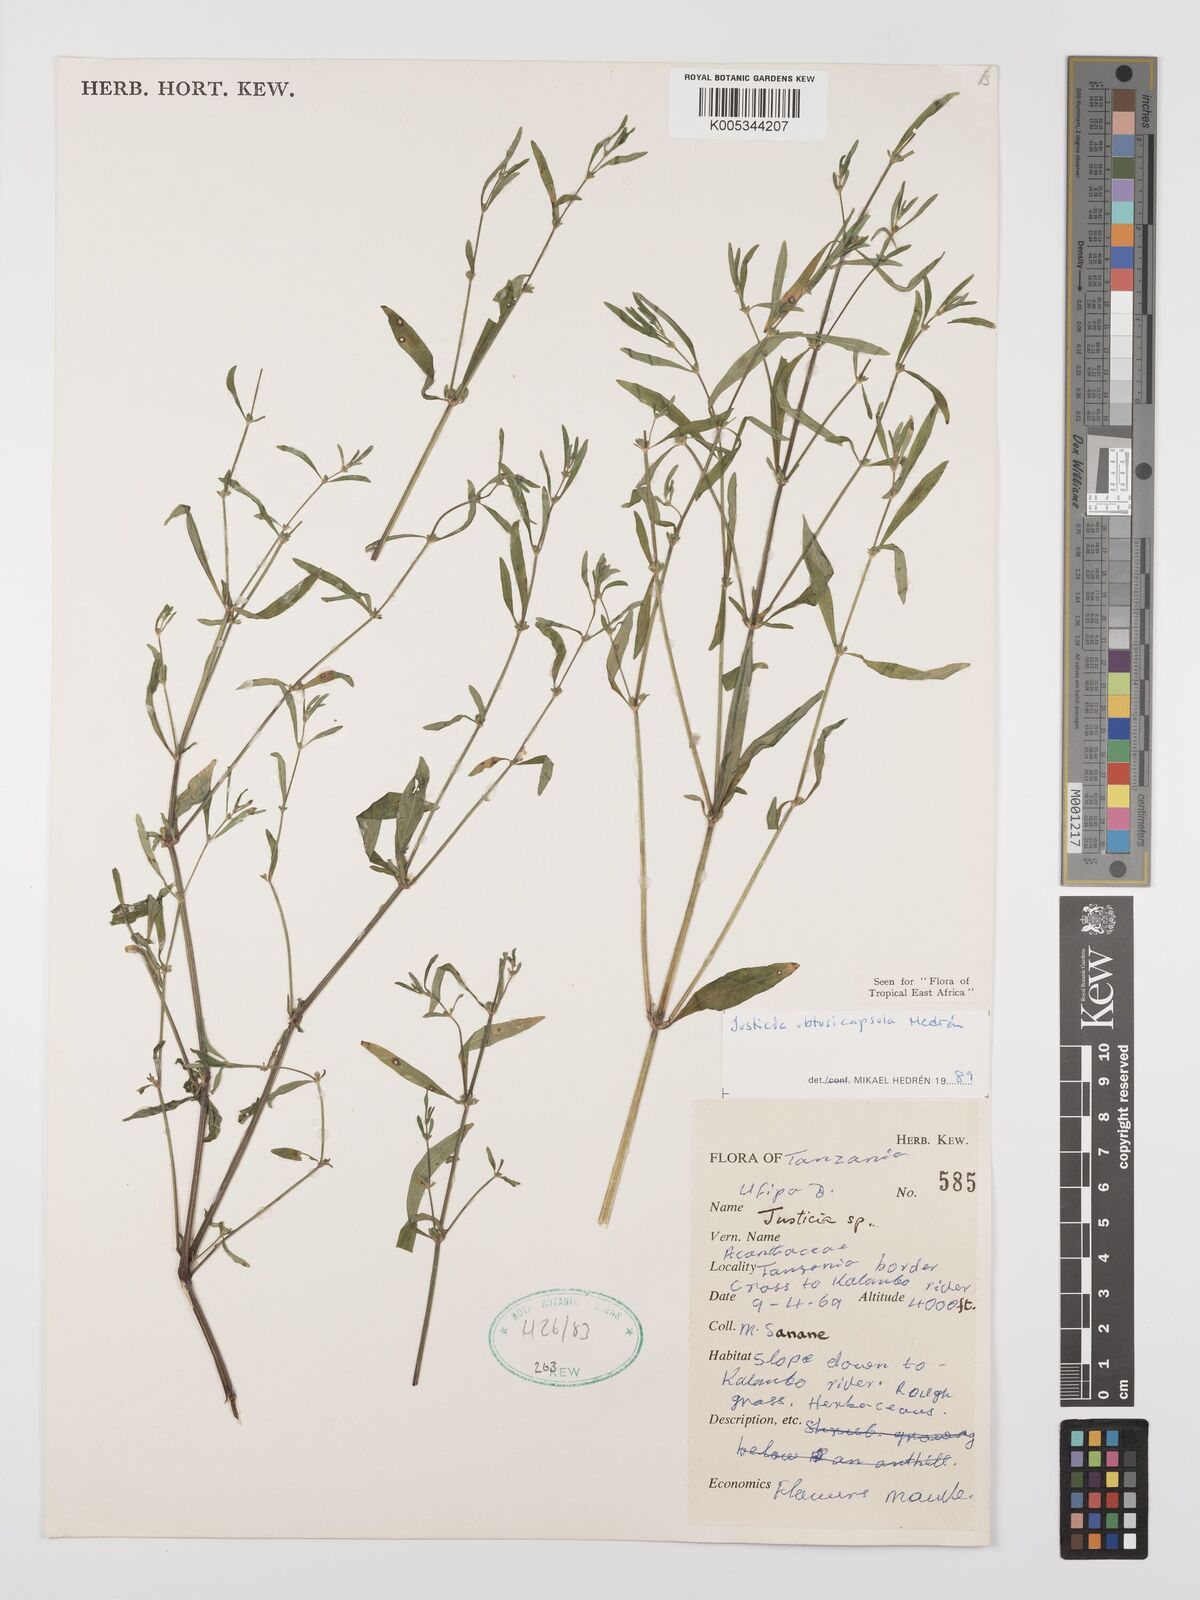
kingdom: Plantae
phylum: Tracheophyta
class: Magnoliopsida
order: Lamiales
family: Acanthaceae
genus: Justicia
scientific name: Justicia obtusicapsula
